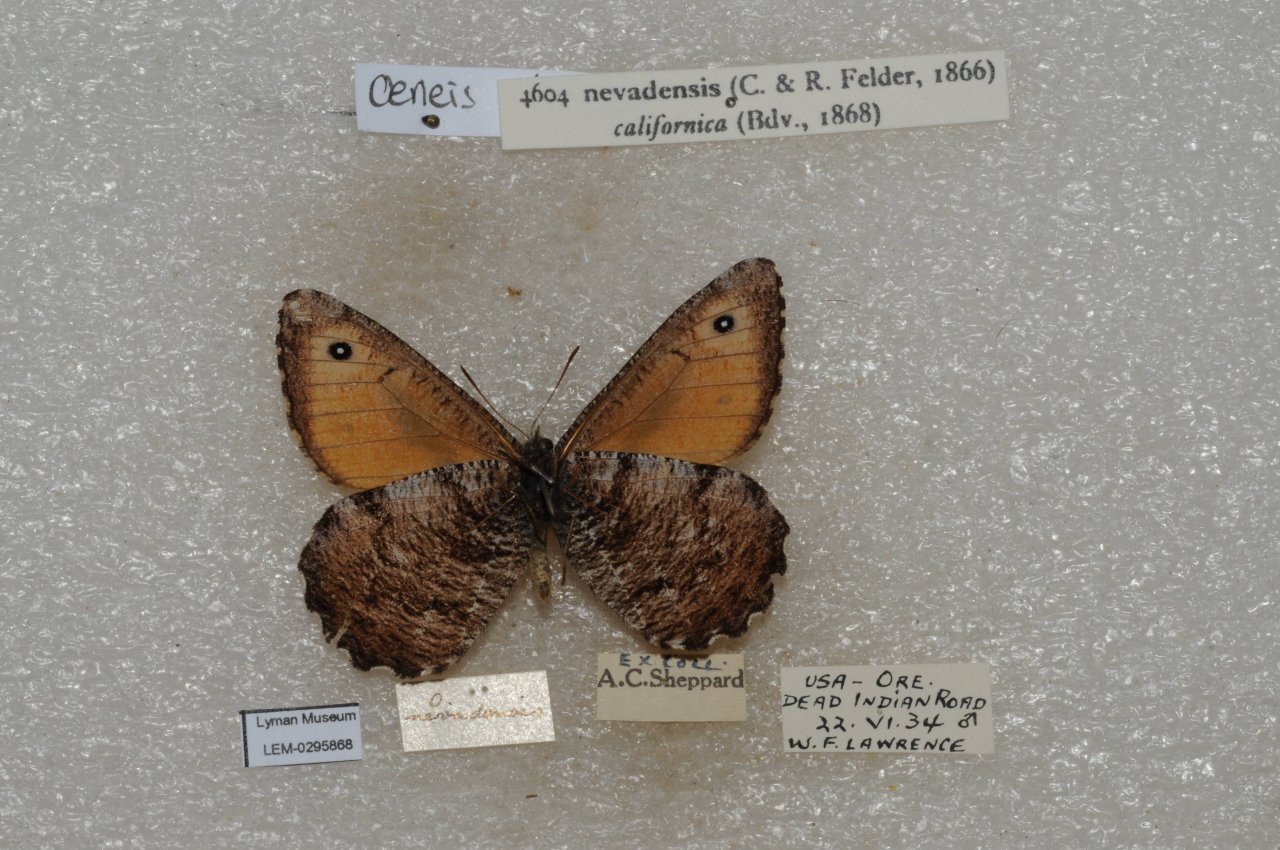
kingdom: Animalia
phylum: Arthropoda
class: Insecta
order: Lepidoptera
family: Nymphalidae
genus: Oeneis
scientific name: Oeneis nevadensis
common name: Great Arctic
